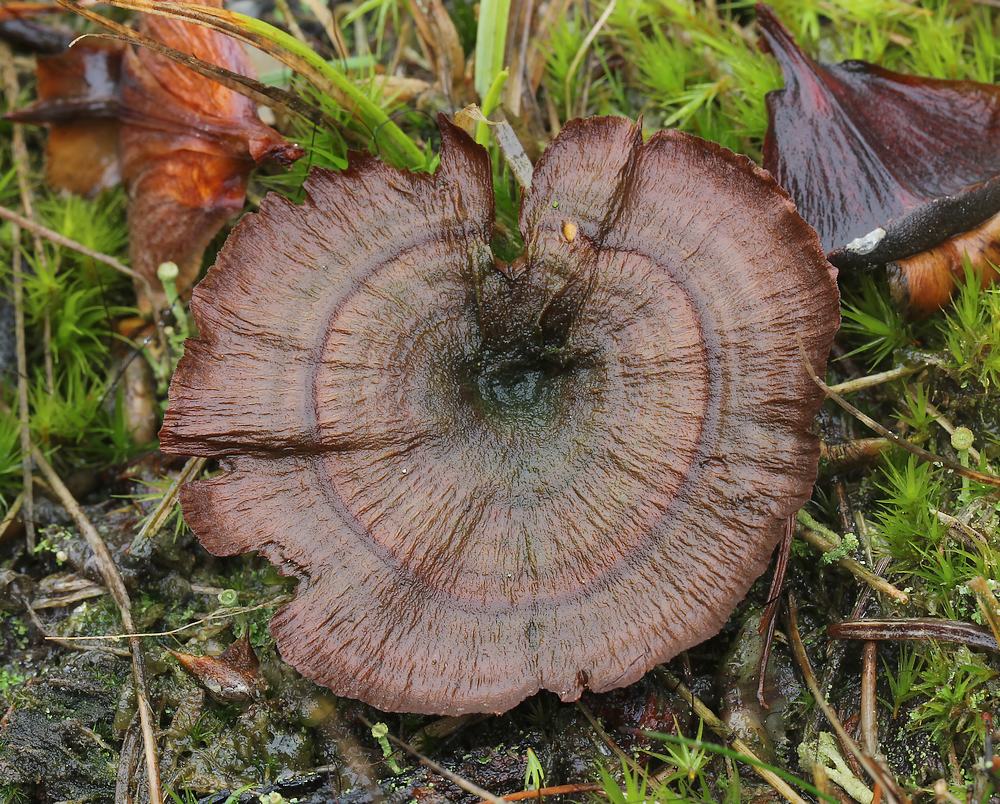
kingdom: Fungi
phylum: Basidiomycota
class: Agaricomycetes
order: Hymenochaetales
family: Hymenochaetaceae
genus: Coltricia
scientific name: Coltricia perennis
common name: almindelig sandporesvamp
